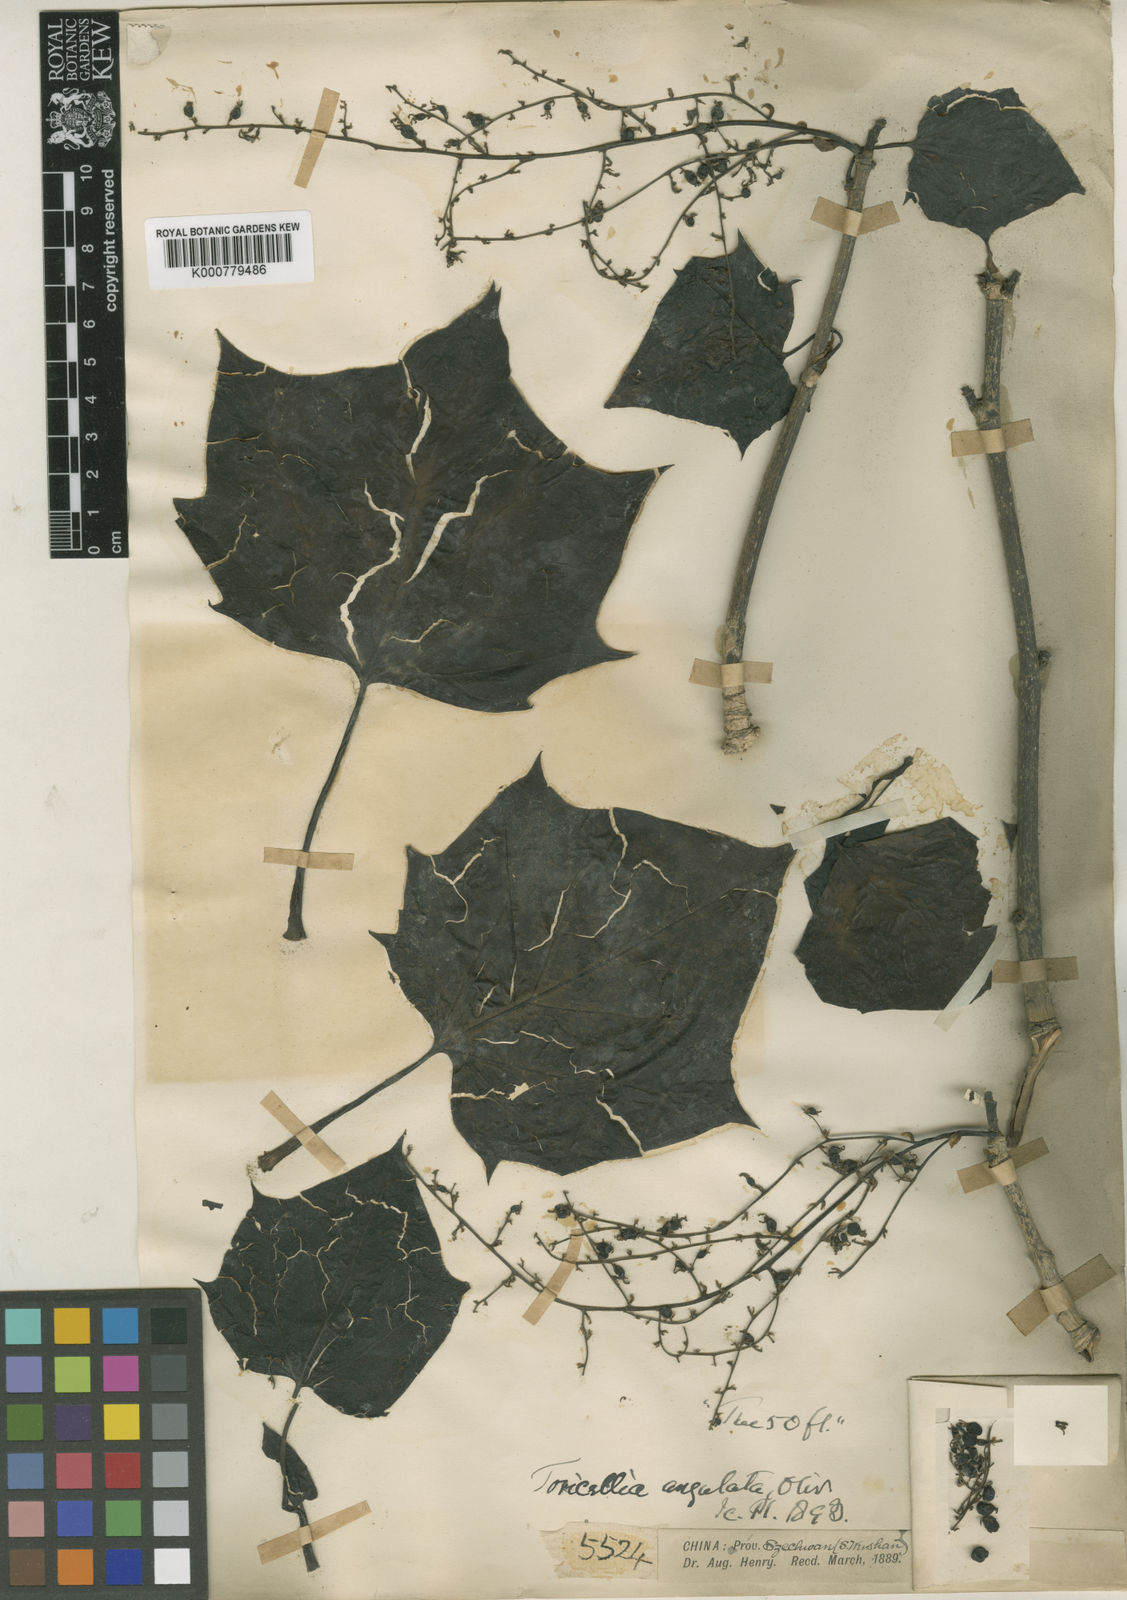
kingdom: Plantae
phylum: Tracheophyta
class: Magnoliopsida
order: Apiales
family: Torricelliaceae
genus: Torricellia
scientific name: Torricellia angulata
